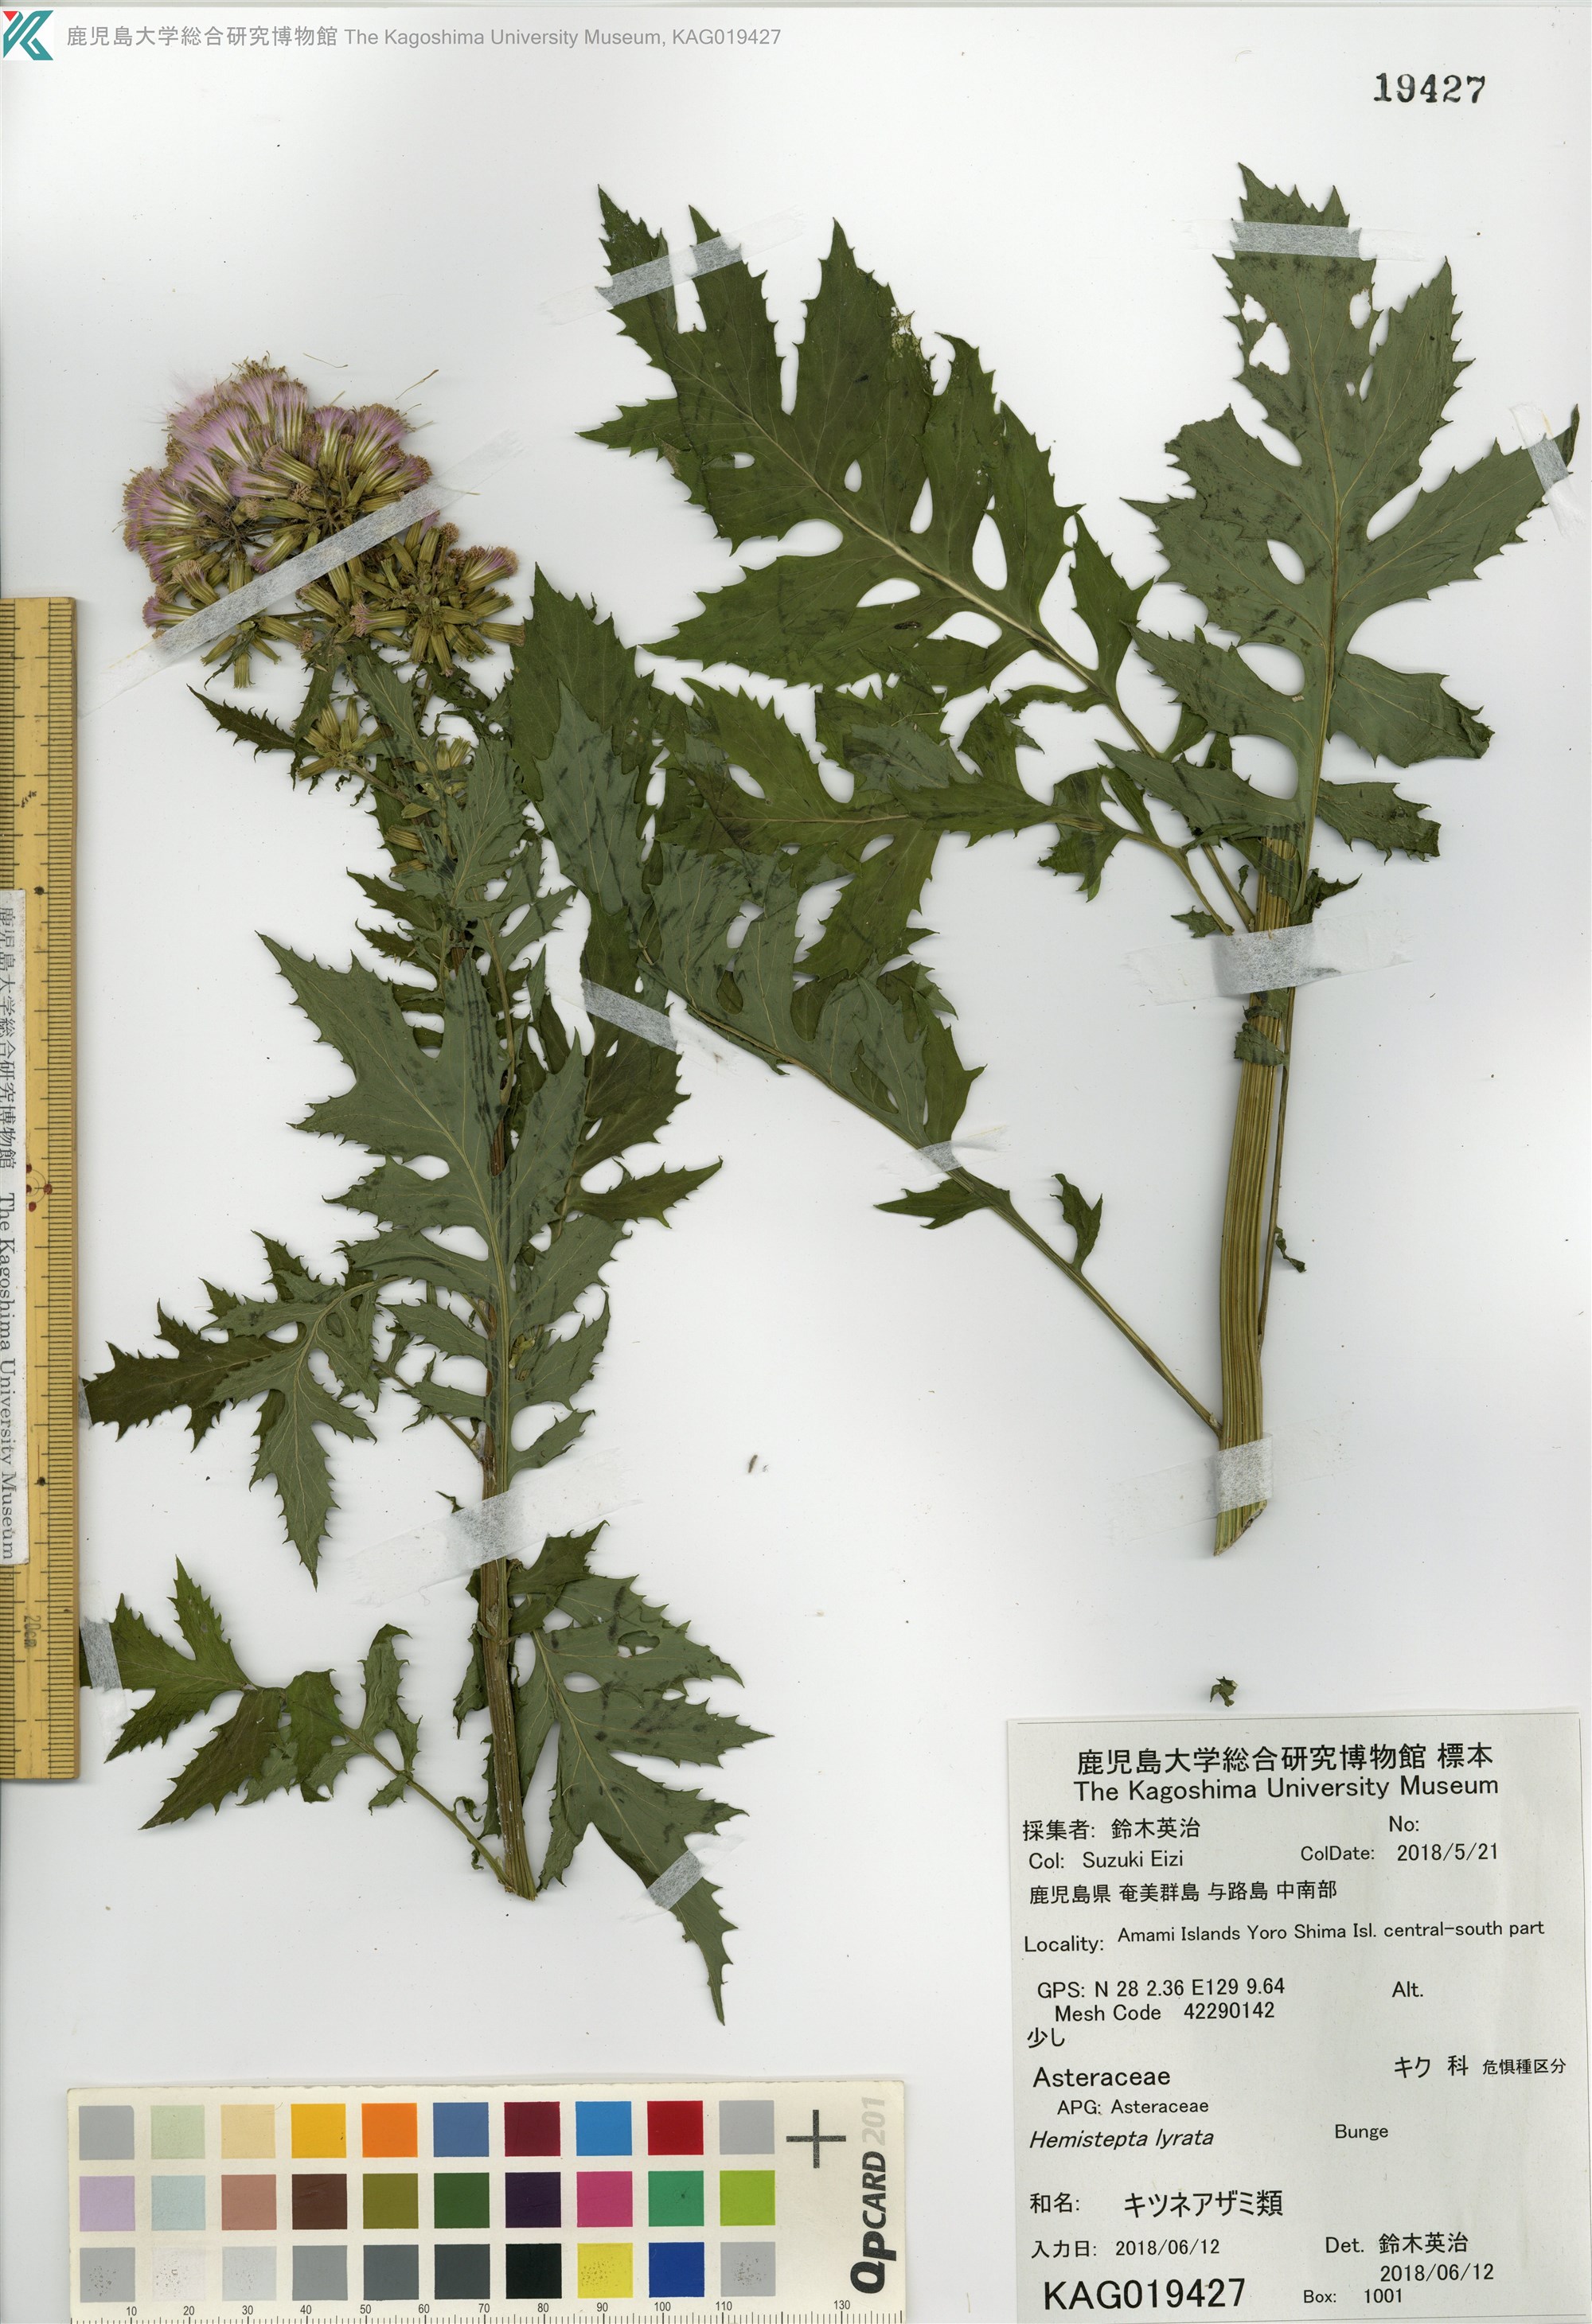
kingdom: Plantae
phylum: Tracheophyta
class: Magnoliopsida
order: Asterales
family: Asteraceae
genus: Erechtites
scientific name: Erechtites valerianifolius
